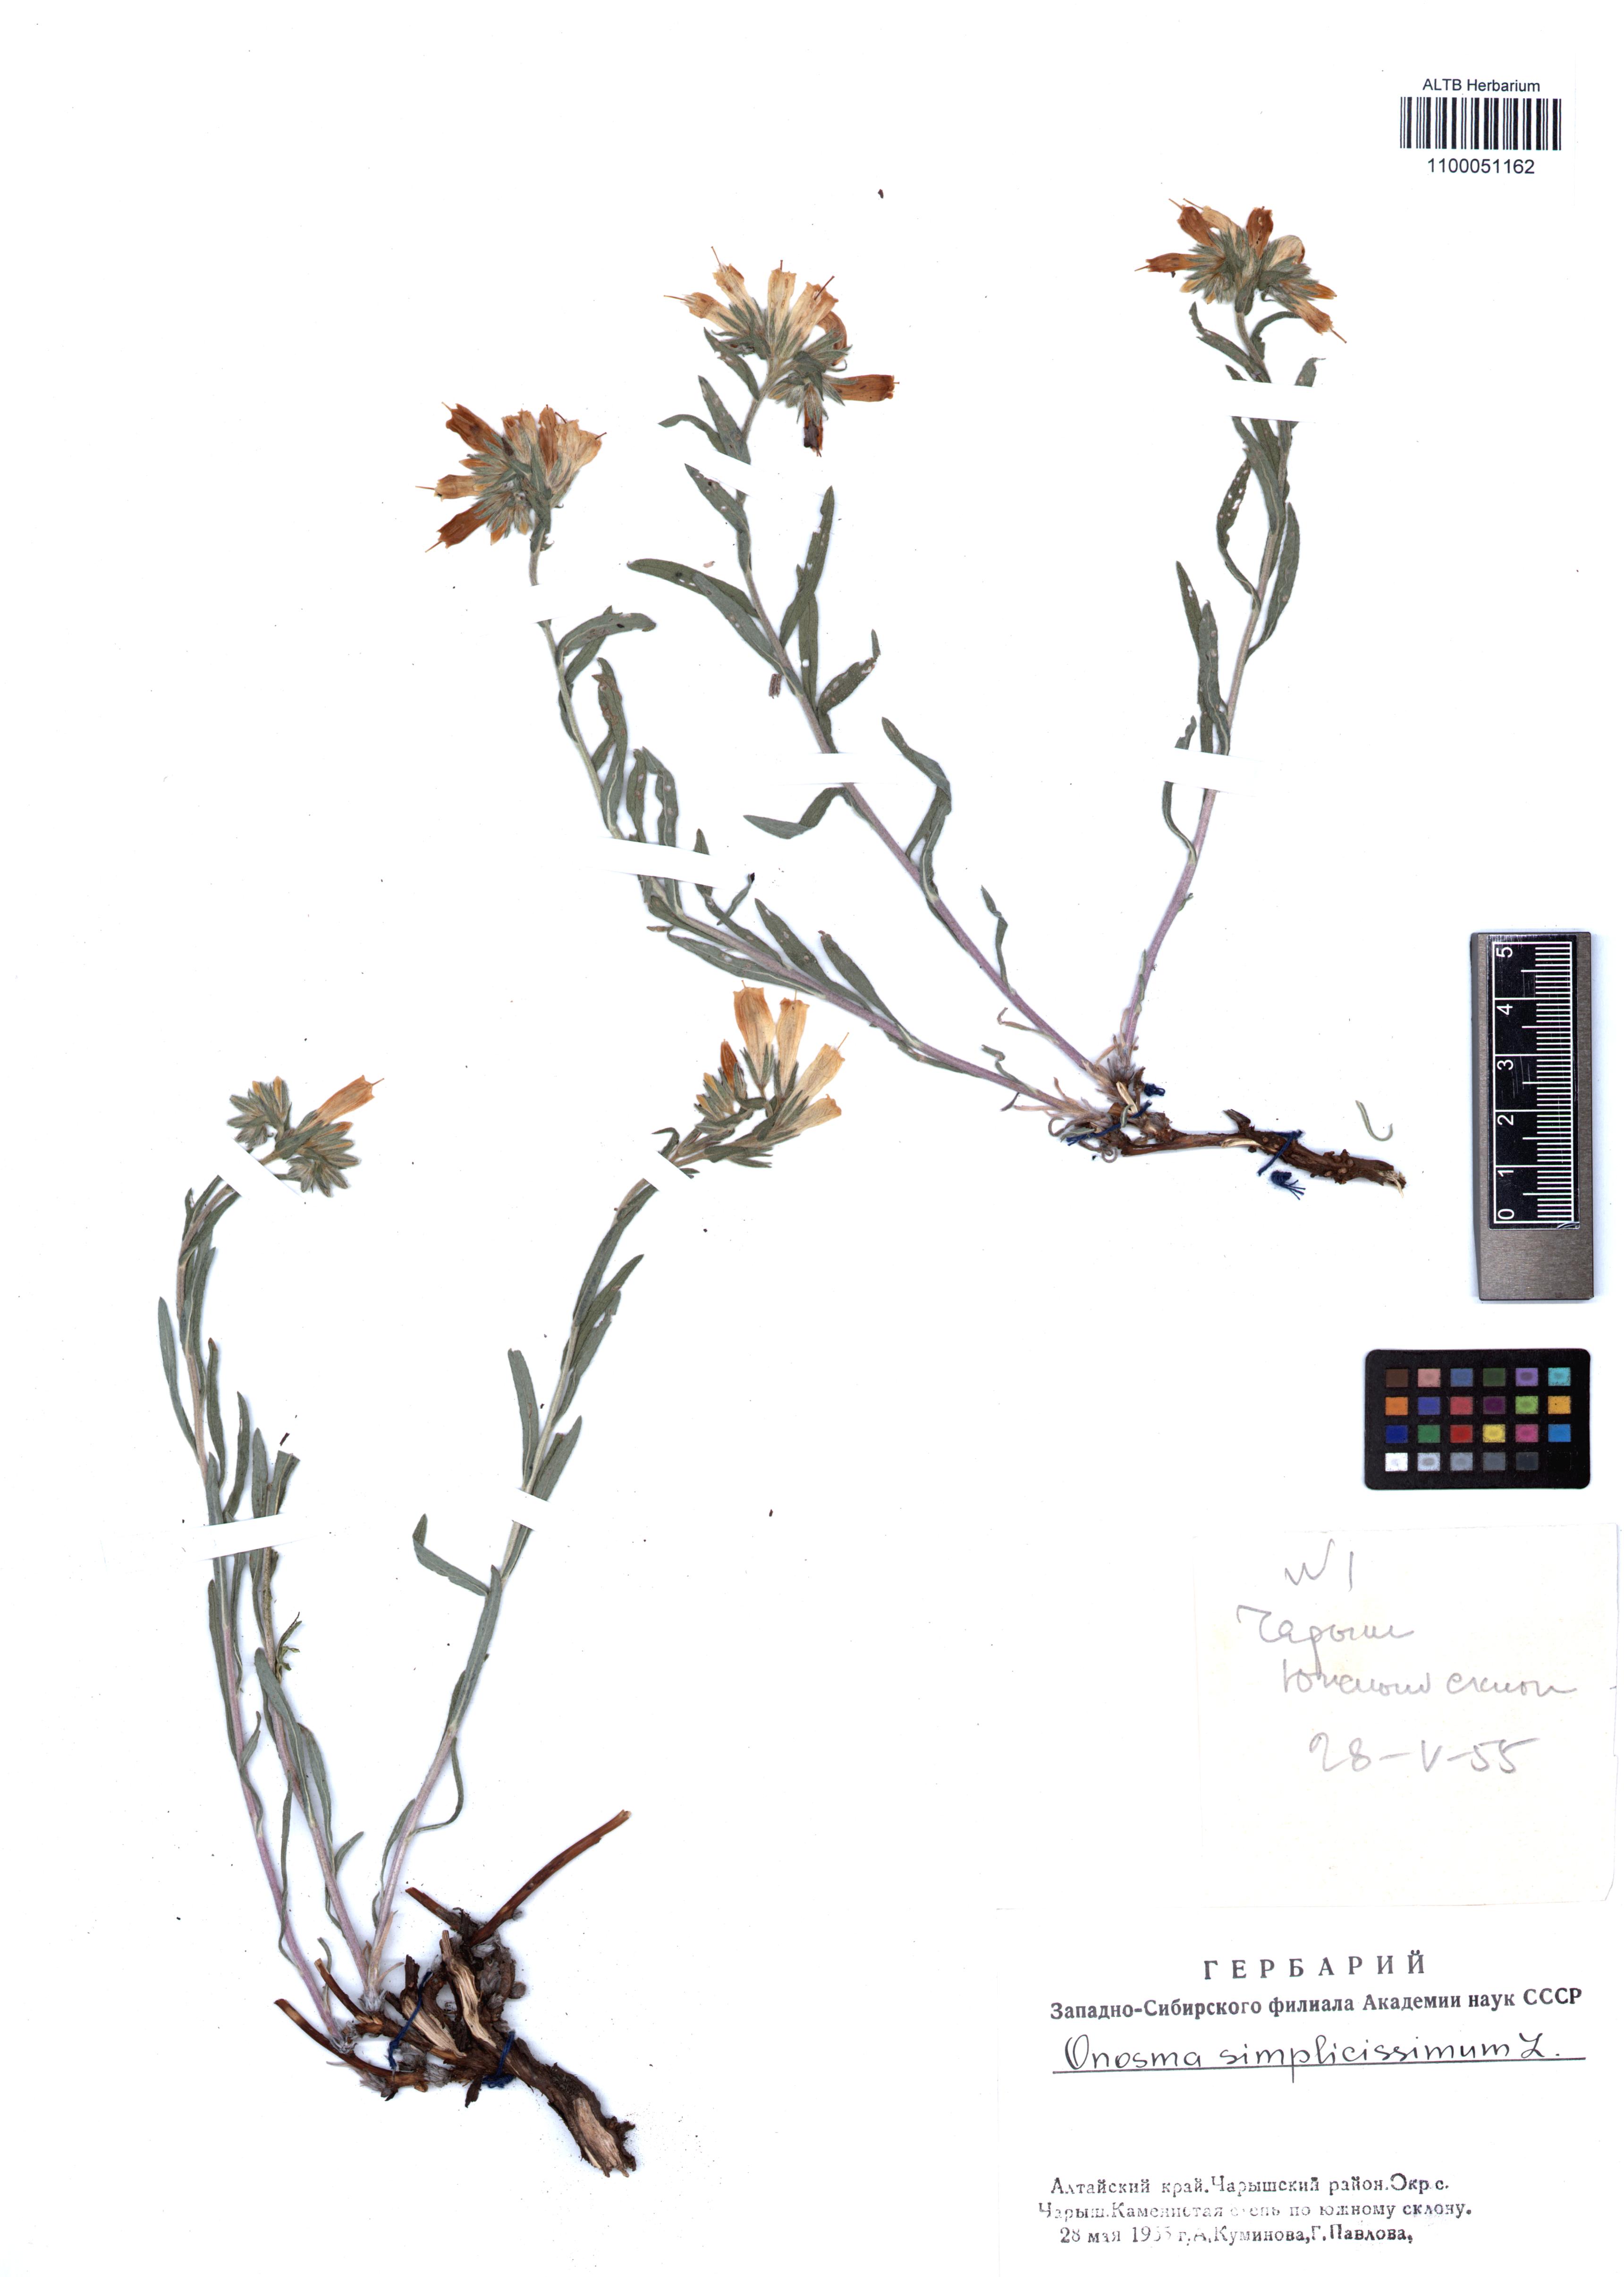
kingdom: Plantae
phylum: Tracheophyta
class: Magnoliopsida
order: Boraginales
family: Boraginaceae
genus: Onosma
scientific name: Onosma simplicissima
